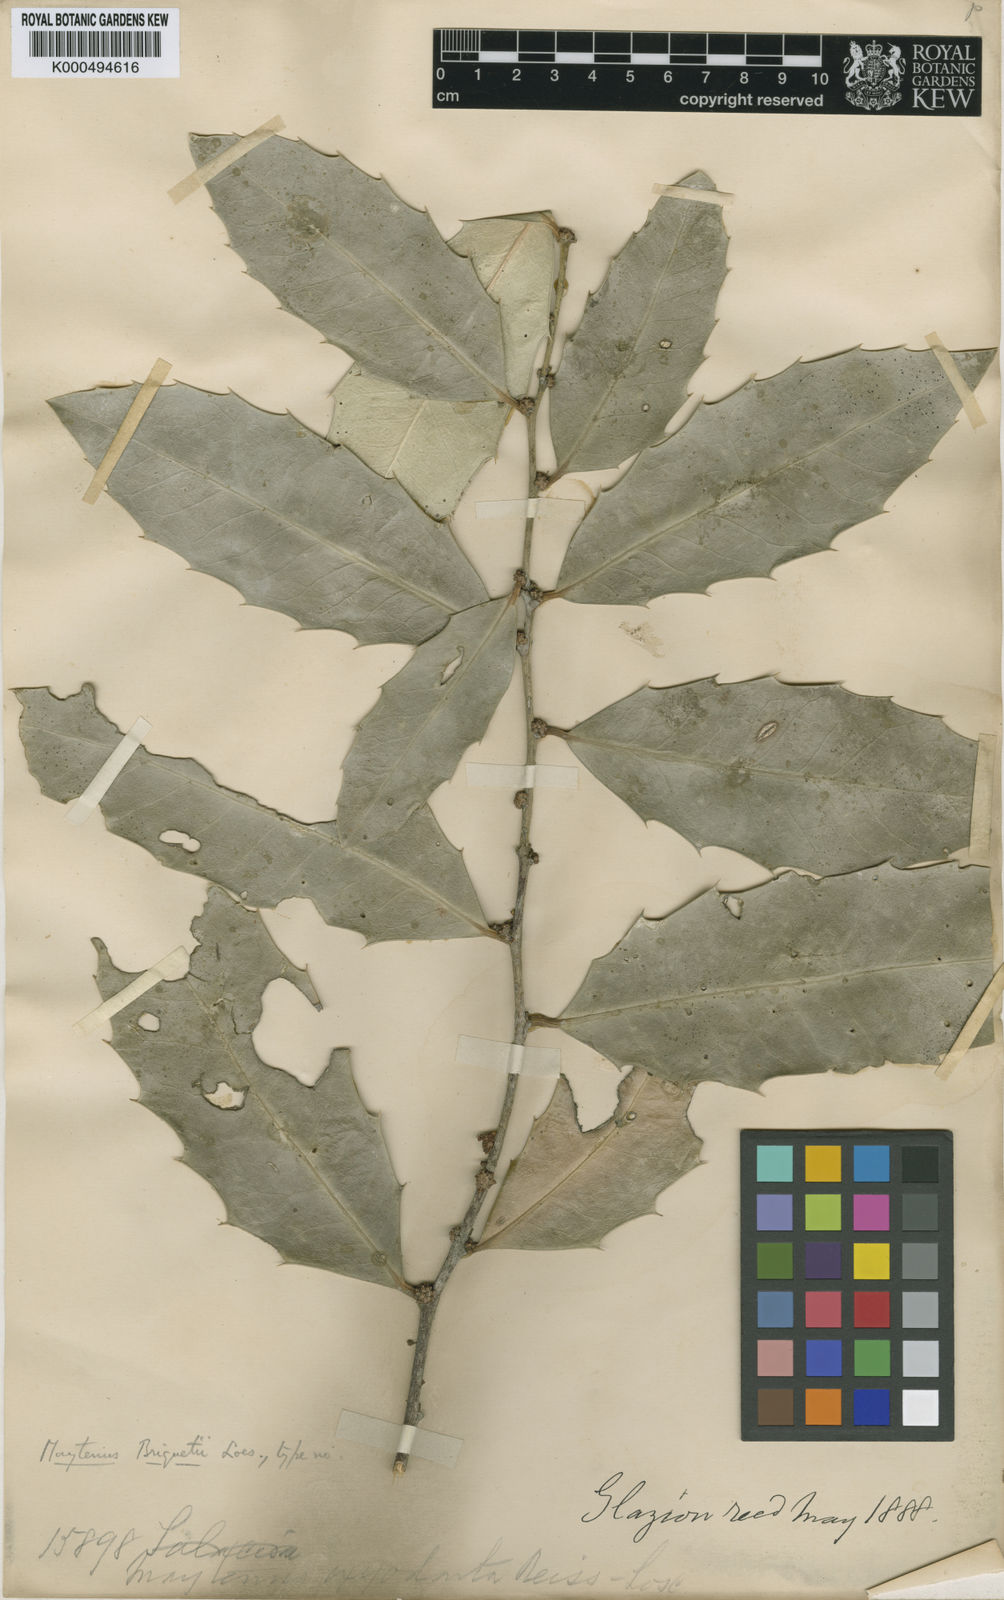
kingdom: Plantae
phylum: Tracheophyta
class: Magnoliopsida
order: Celastrales
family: Celastraceae
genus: Monteverdia
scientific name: Monteverdia aquifolium
